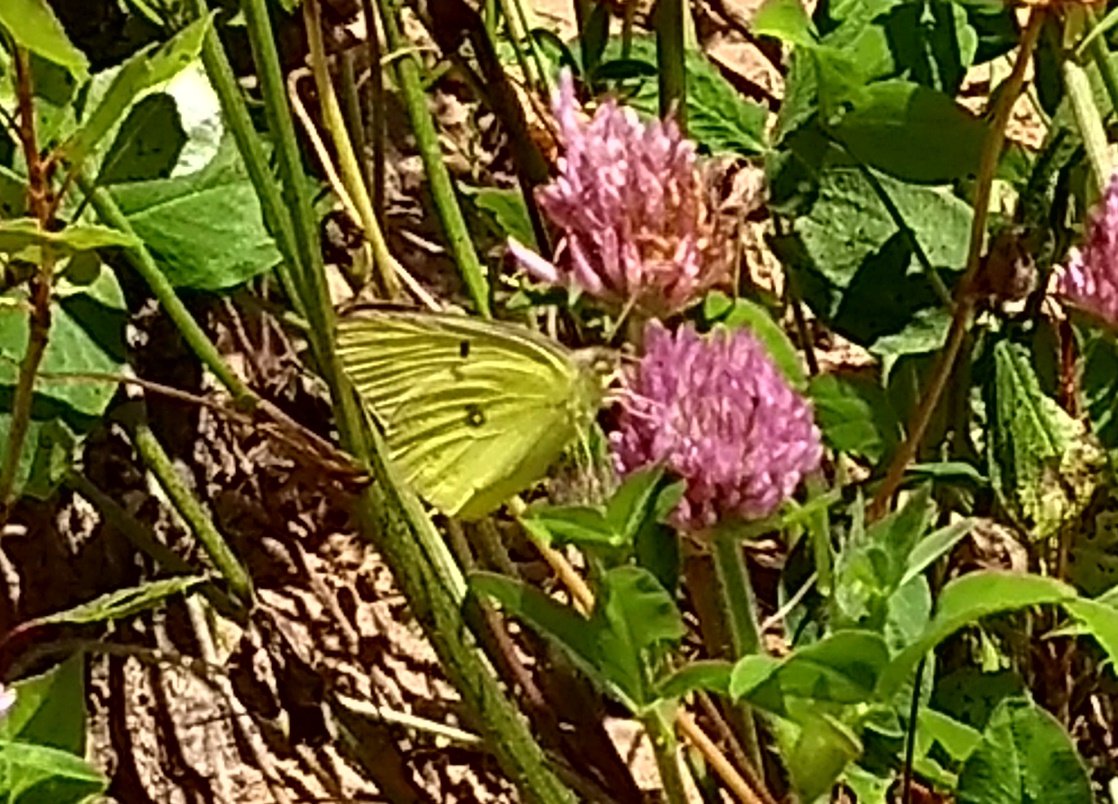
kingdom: Animalia
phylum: Arthropoda
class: Insecta
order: Lepidoptera
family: Pieridae
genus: Colias
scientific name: Colias philodice
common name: Clouded Sulphur
